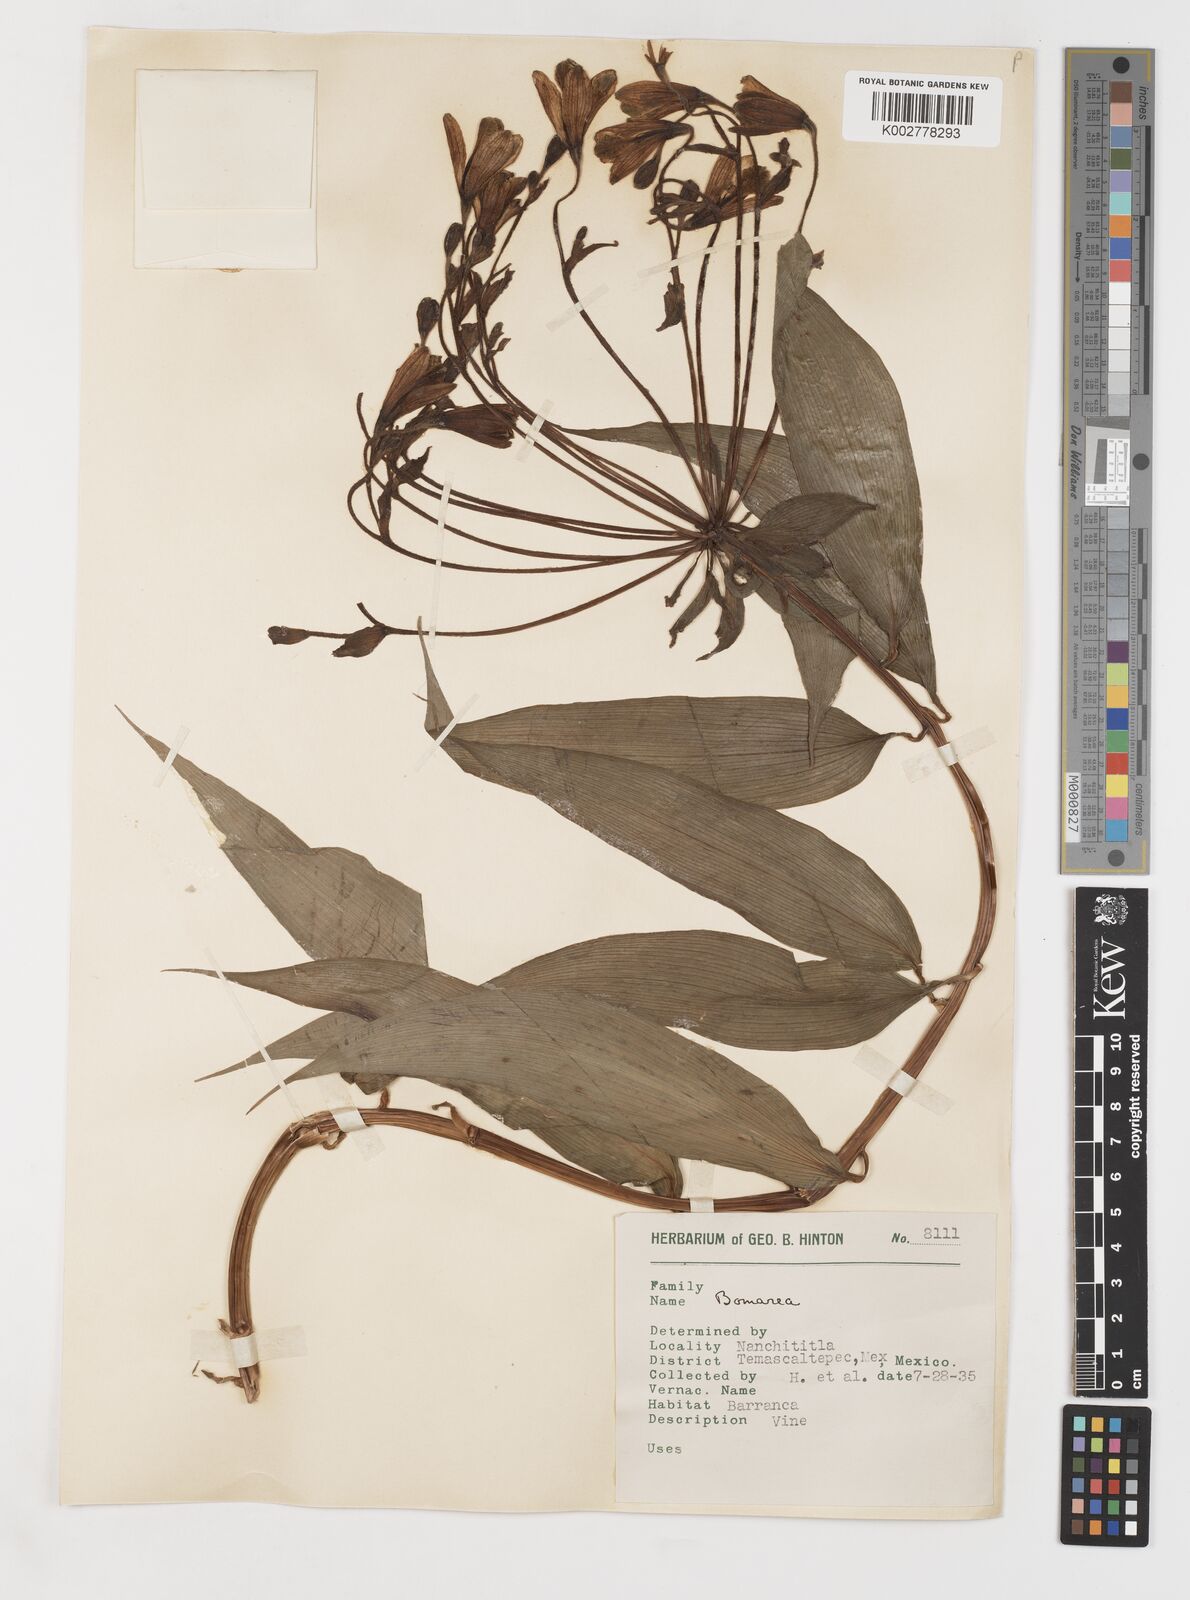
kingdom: Plantae
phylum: Tracheophyta
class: Liliopsida
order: Liliales
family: Alstroemeriaceae
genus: Bomarea
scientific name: Bomarea edulis
